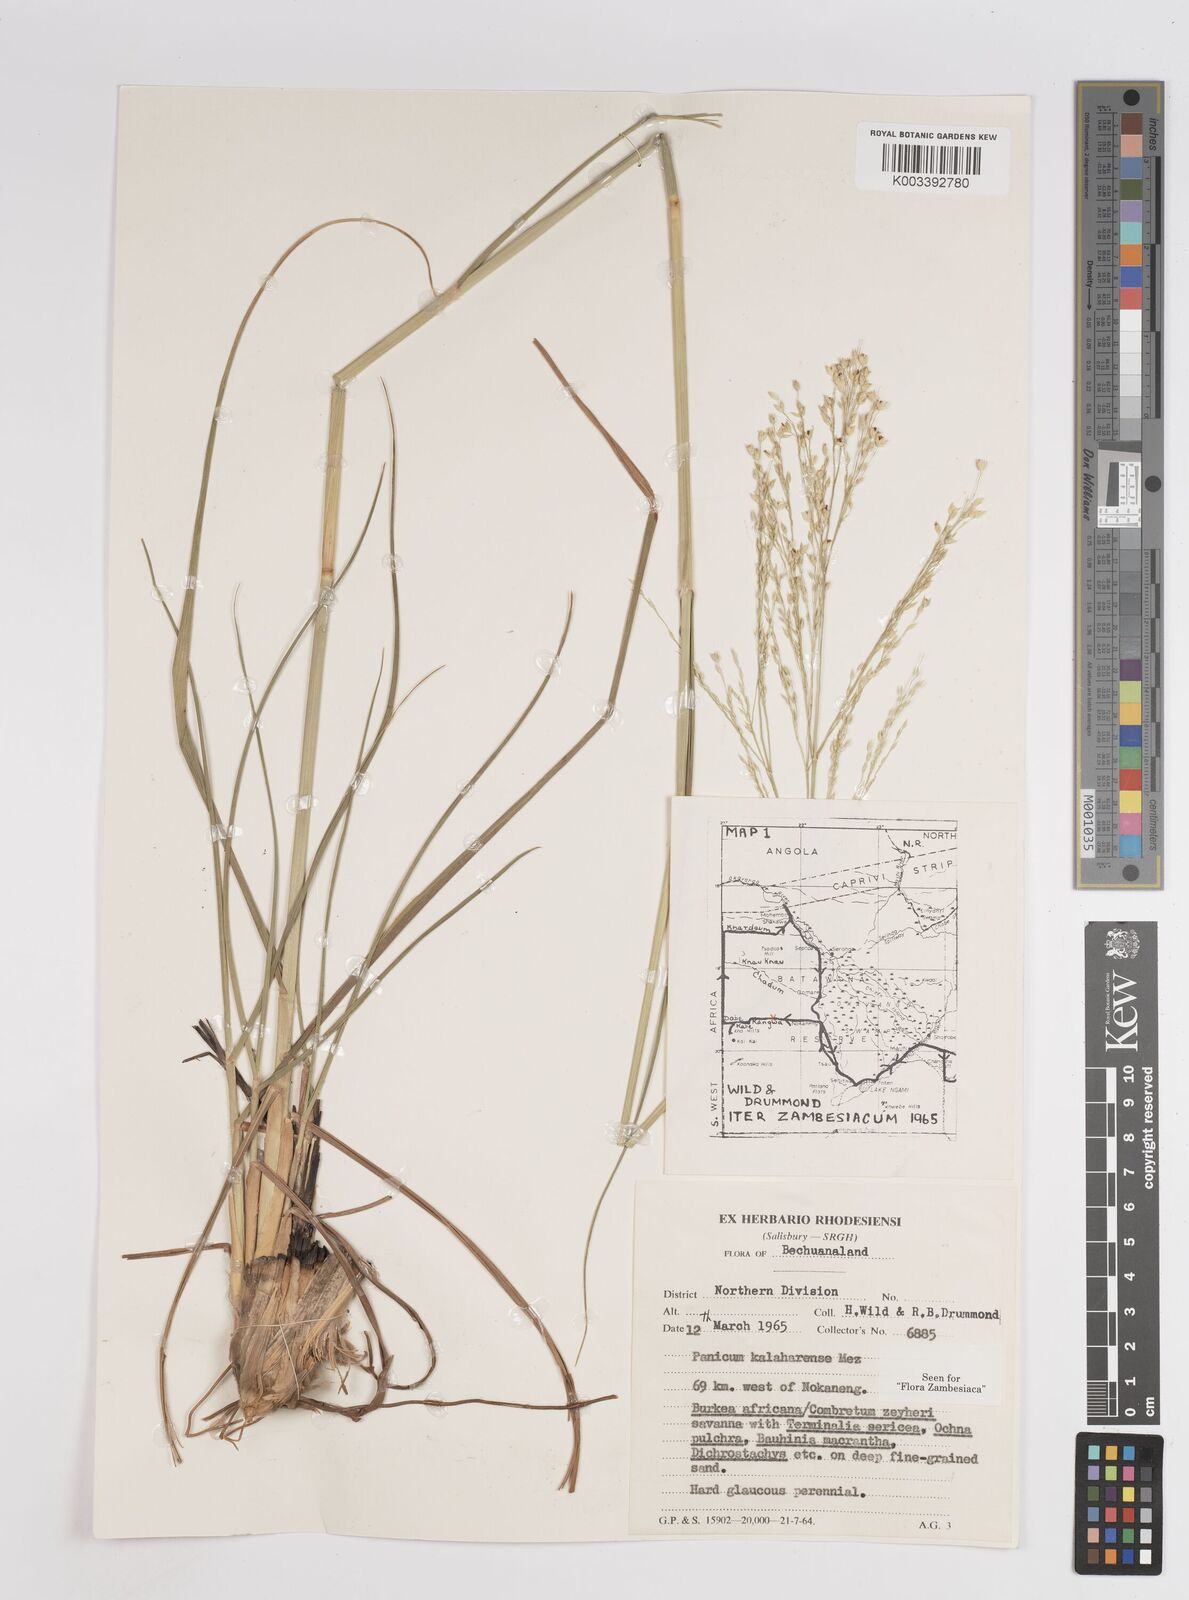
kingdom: Plantae
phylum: Tracheophyta
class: Liliopsida
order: Poales
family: Poaceae
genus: Panicum
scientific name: Panicum kalaharense
